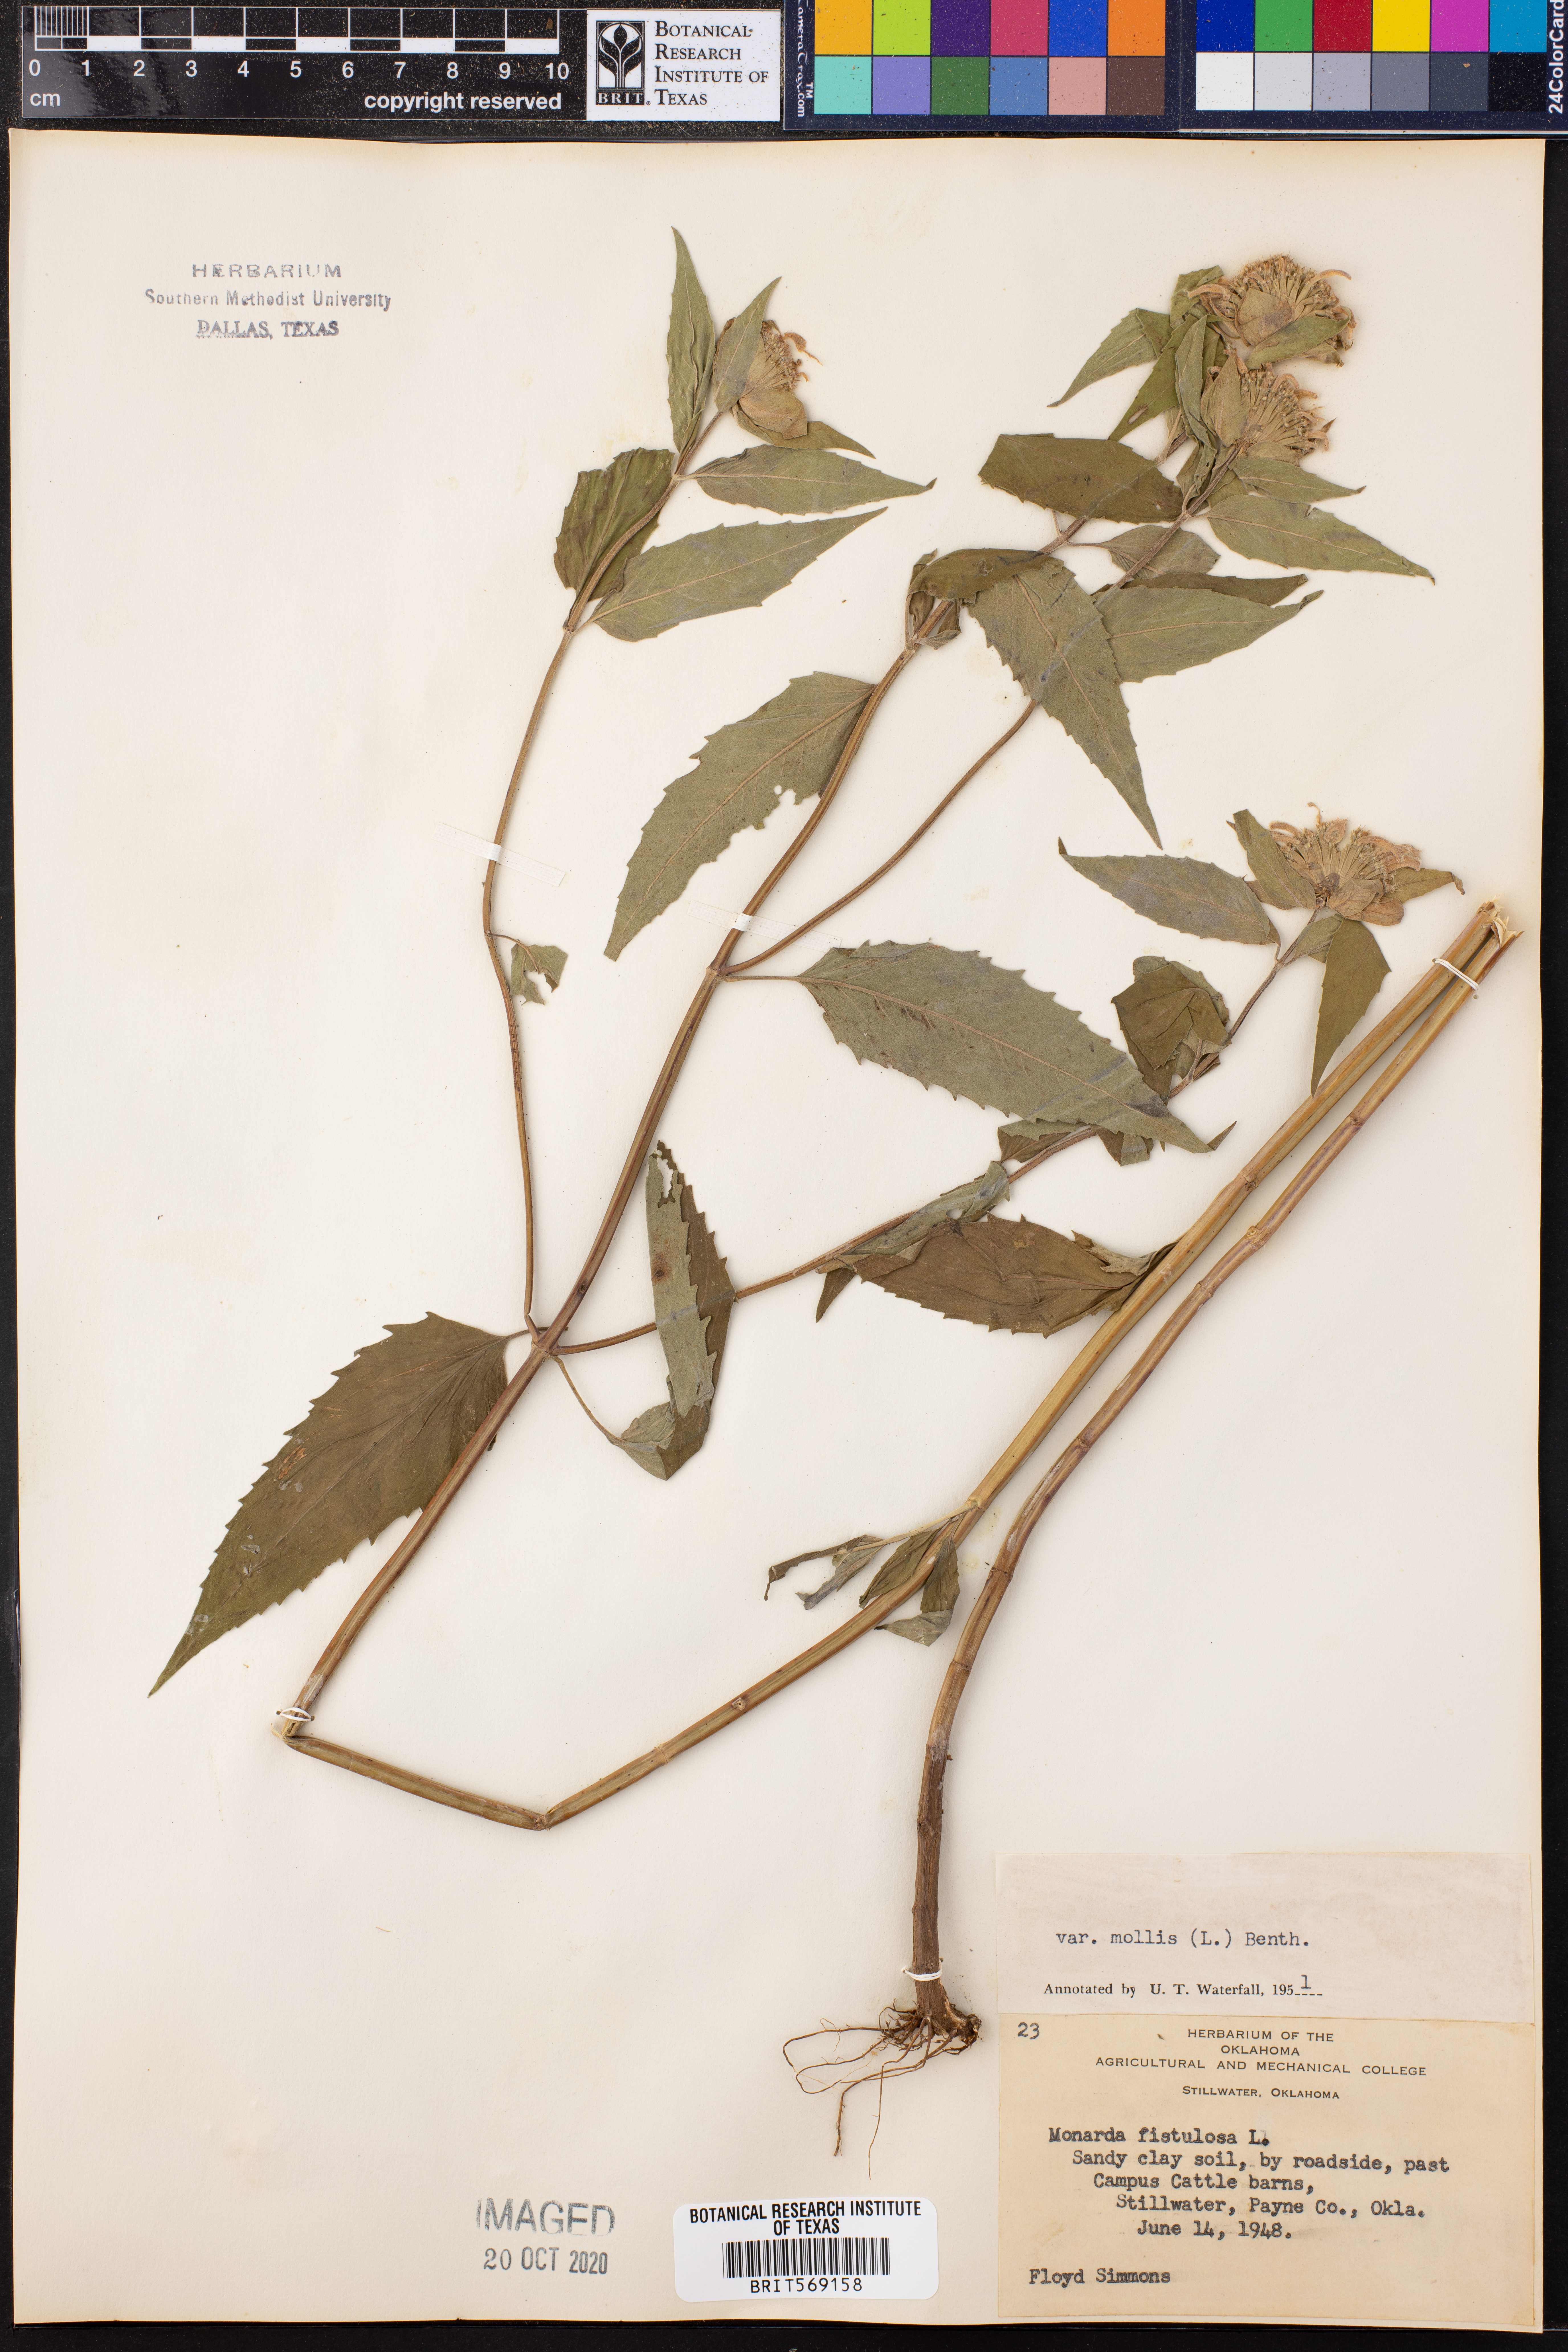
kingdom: Plantae
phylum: Tracheophyta
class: Magnoliopsida
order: Lamiales
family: Lamiaceae
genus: Monarda
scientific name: Monarda fistulosa
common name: Purple beebalm
